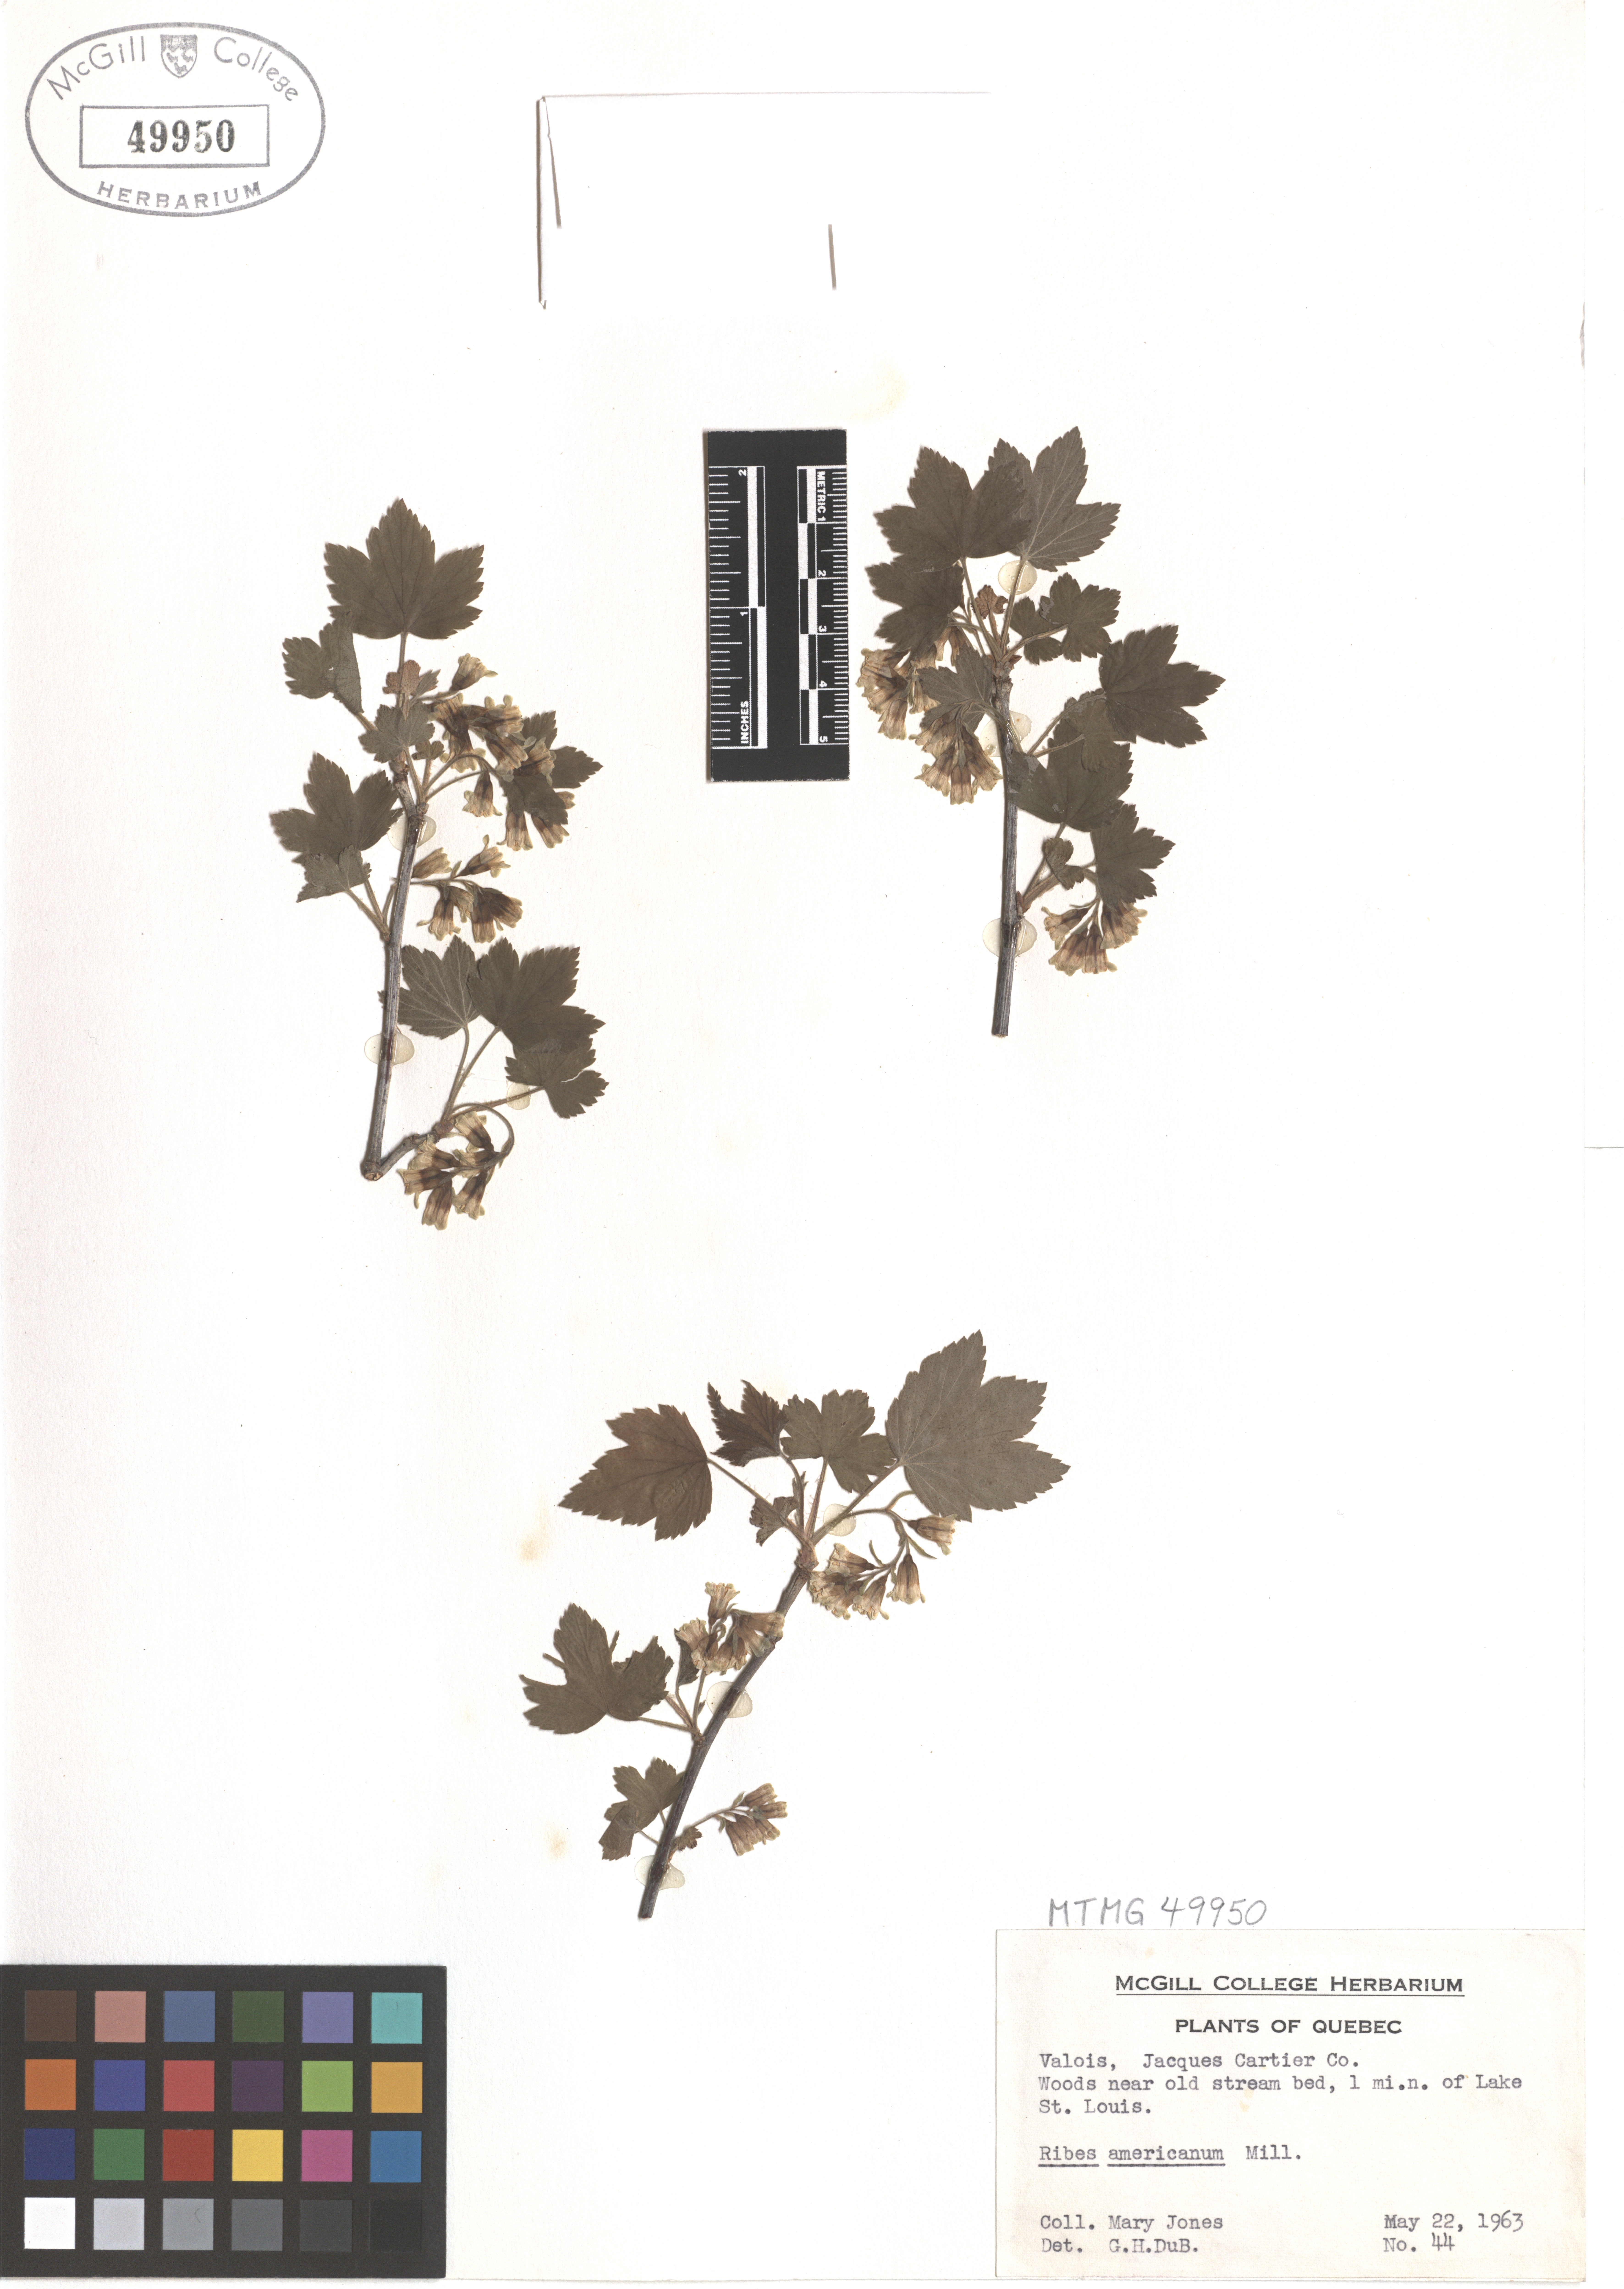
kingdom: Plantae
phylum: Tracheophyta
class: Magnoliopsida
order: Saxifragales
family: Grossulariaceae
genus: Ribes
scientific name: Ribes americanum
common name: American black currant
